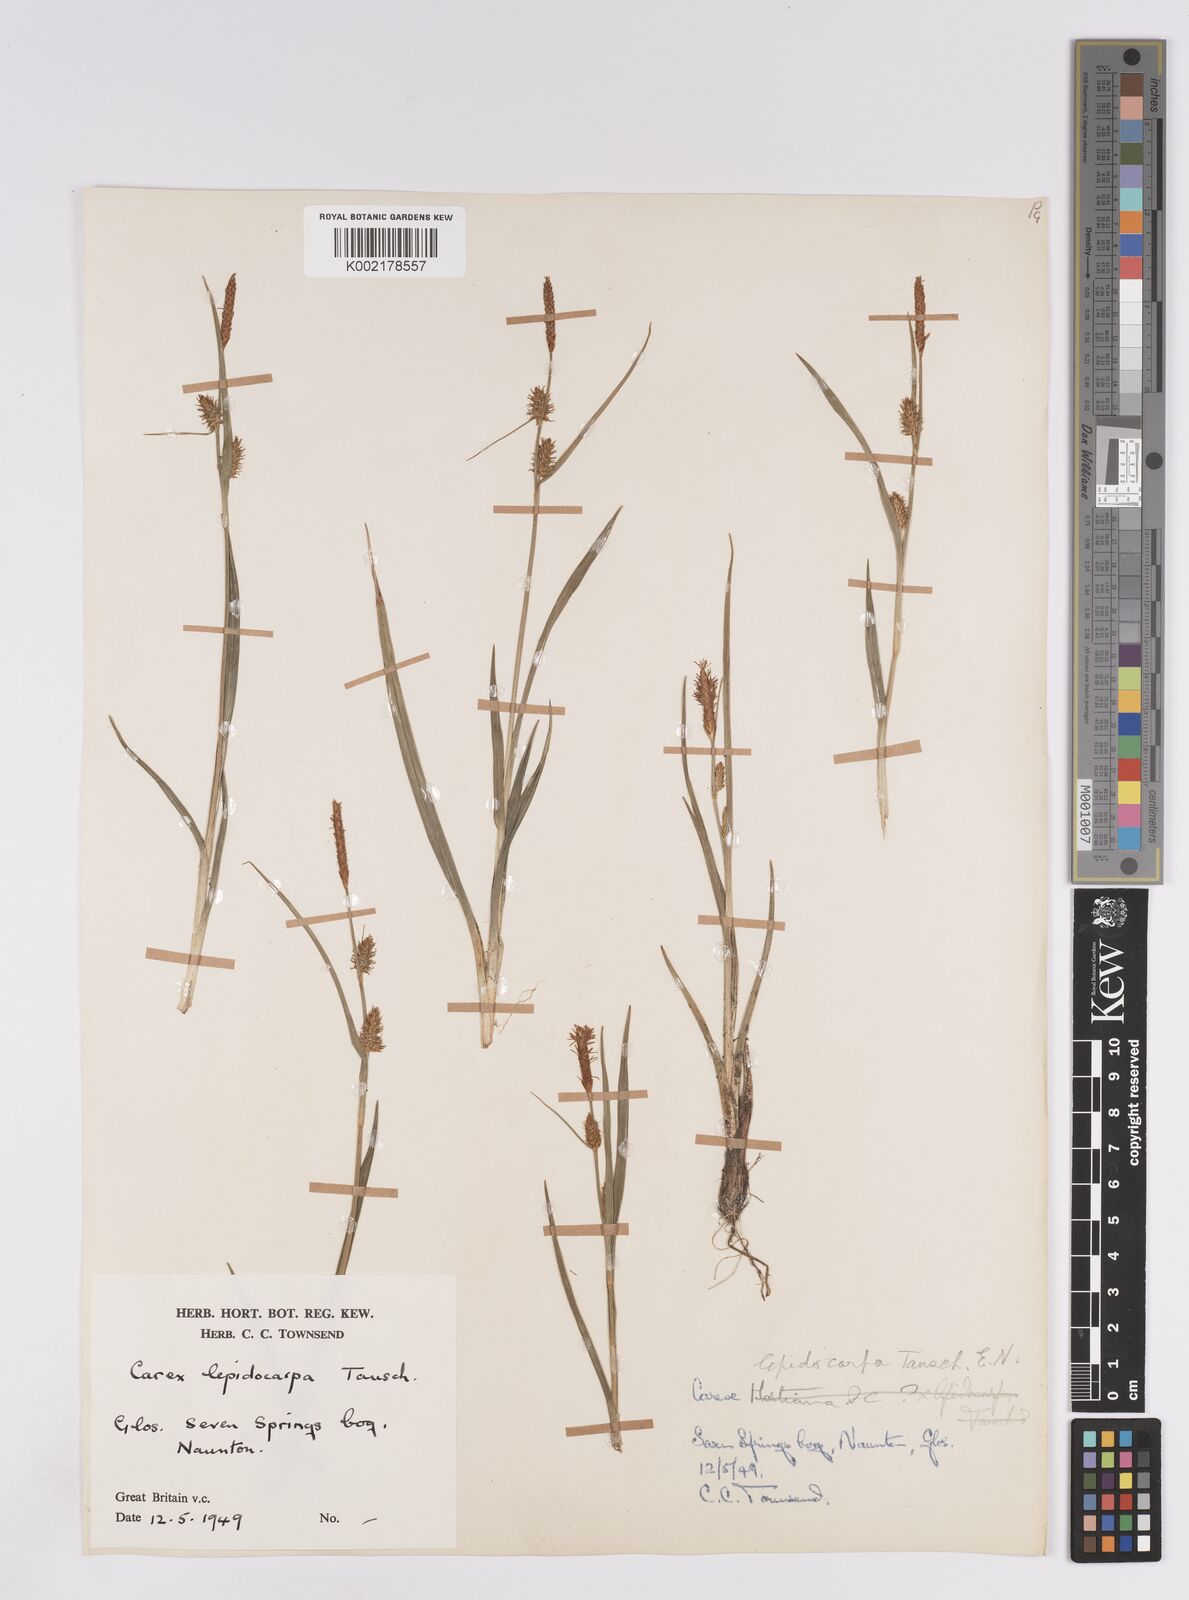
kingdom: Plantae
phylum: Tracheophyta
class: Liliopsida
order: Poales
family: Cyperaceae
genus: Carex
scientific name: Carex lepidocarpa
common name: Long-stalked yellow-sedge
